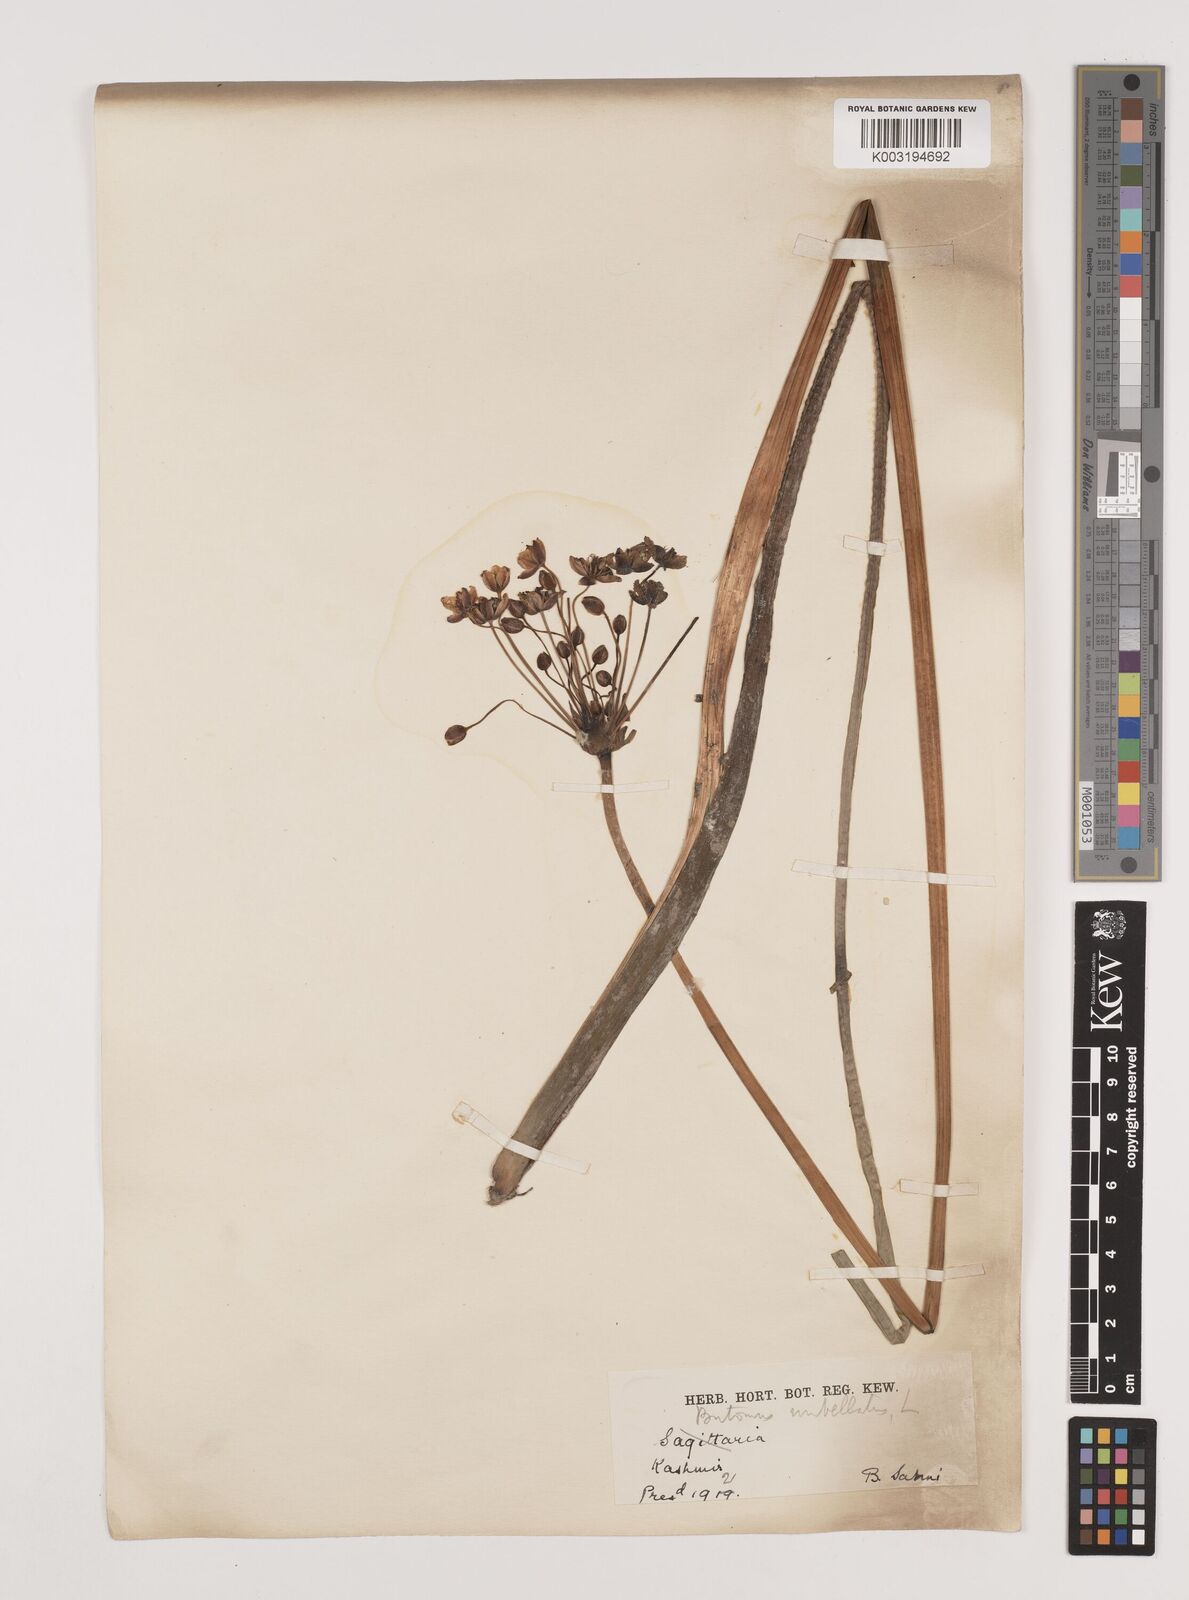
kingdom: Plantae
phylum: Tracheophyta
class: Liliopsida
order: Alismatales
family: Butomaceae
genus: Butomus
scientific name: Butomus umbellatus
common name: Flowering-rush
